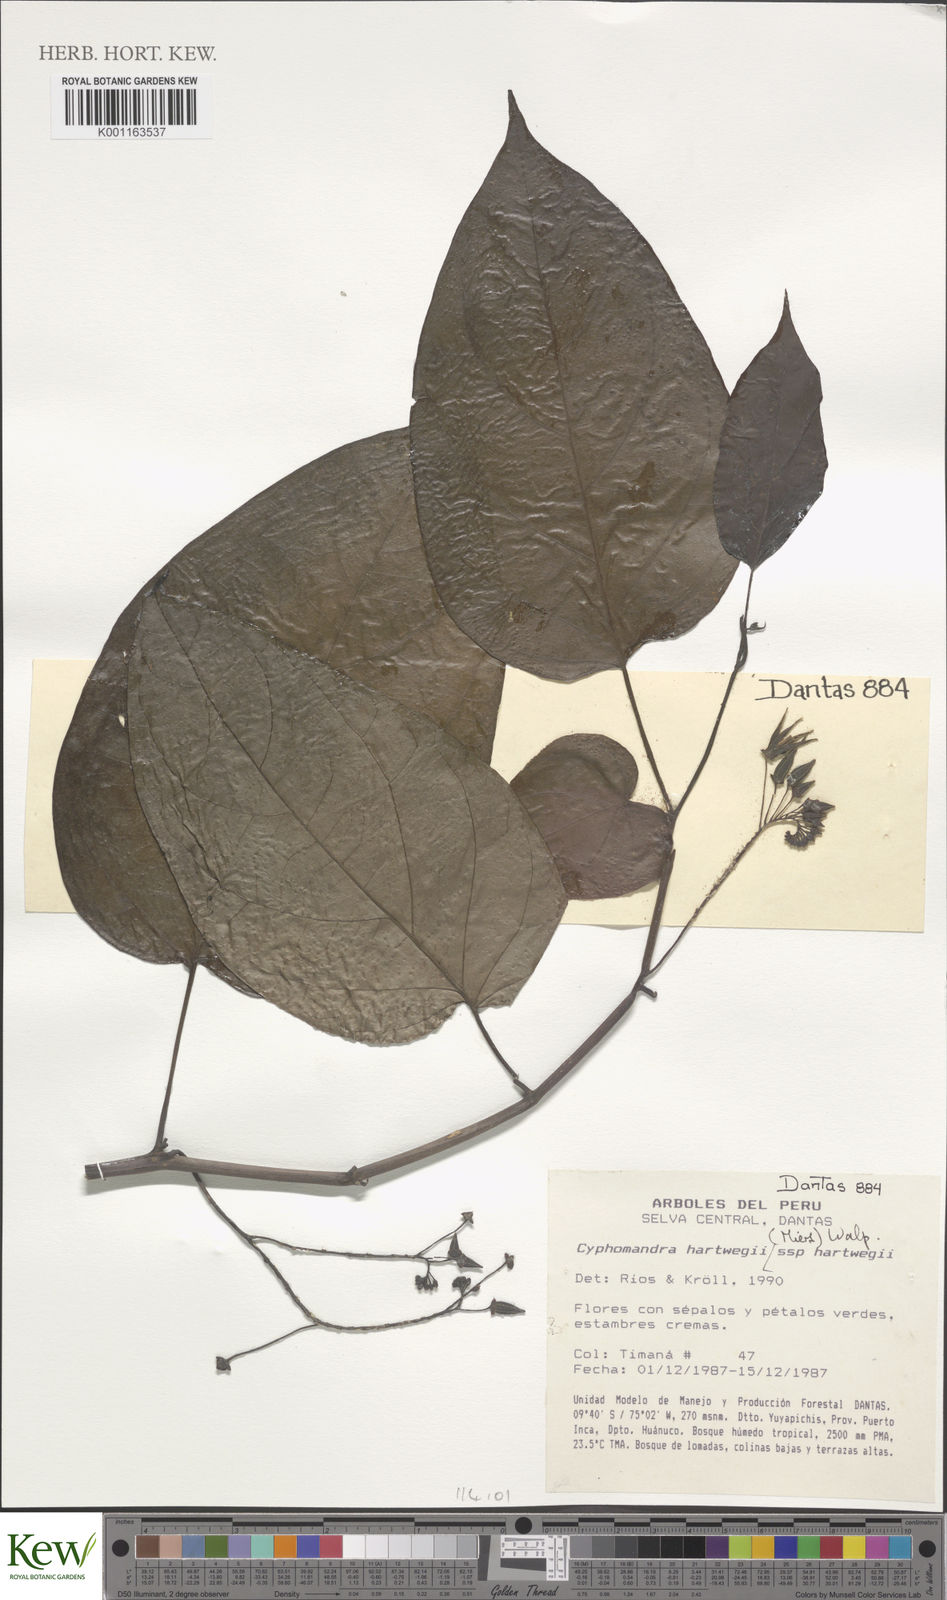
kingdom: Plantae
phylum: Tracheophyta
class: Magnoliopsida
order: Solanales
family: Solanaceae
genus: Solanum
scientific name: Solanum splendens
